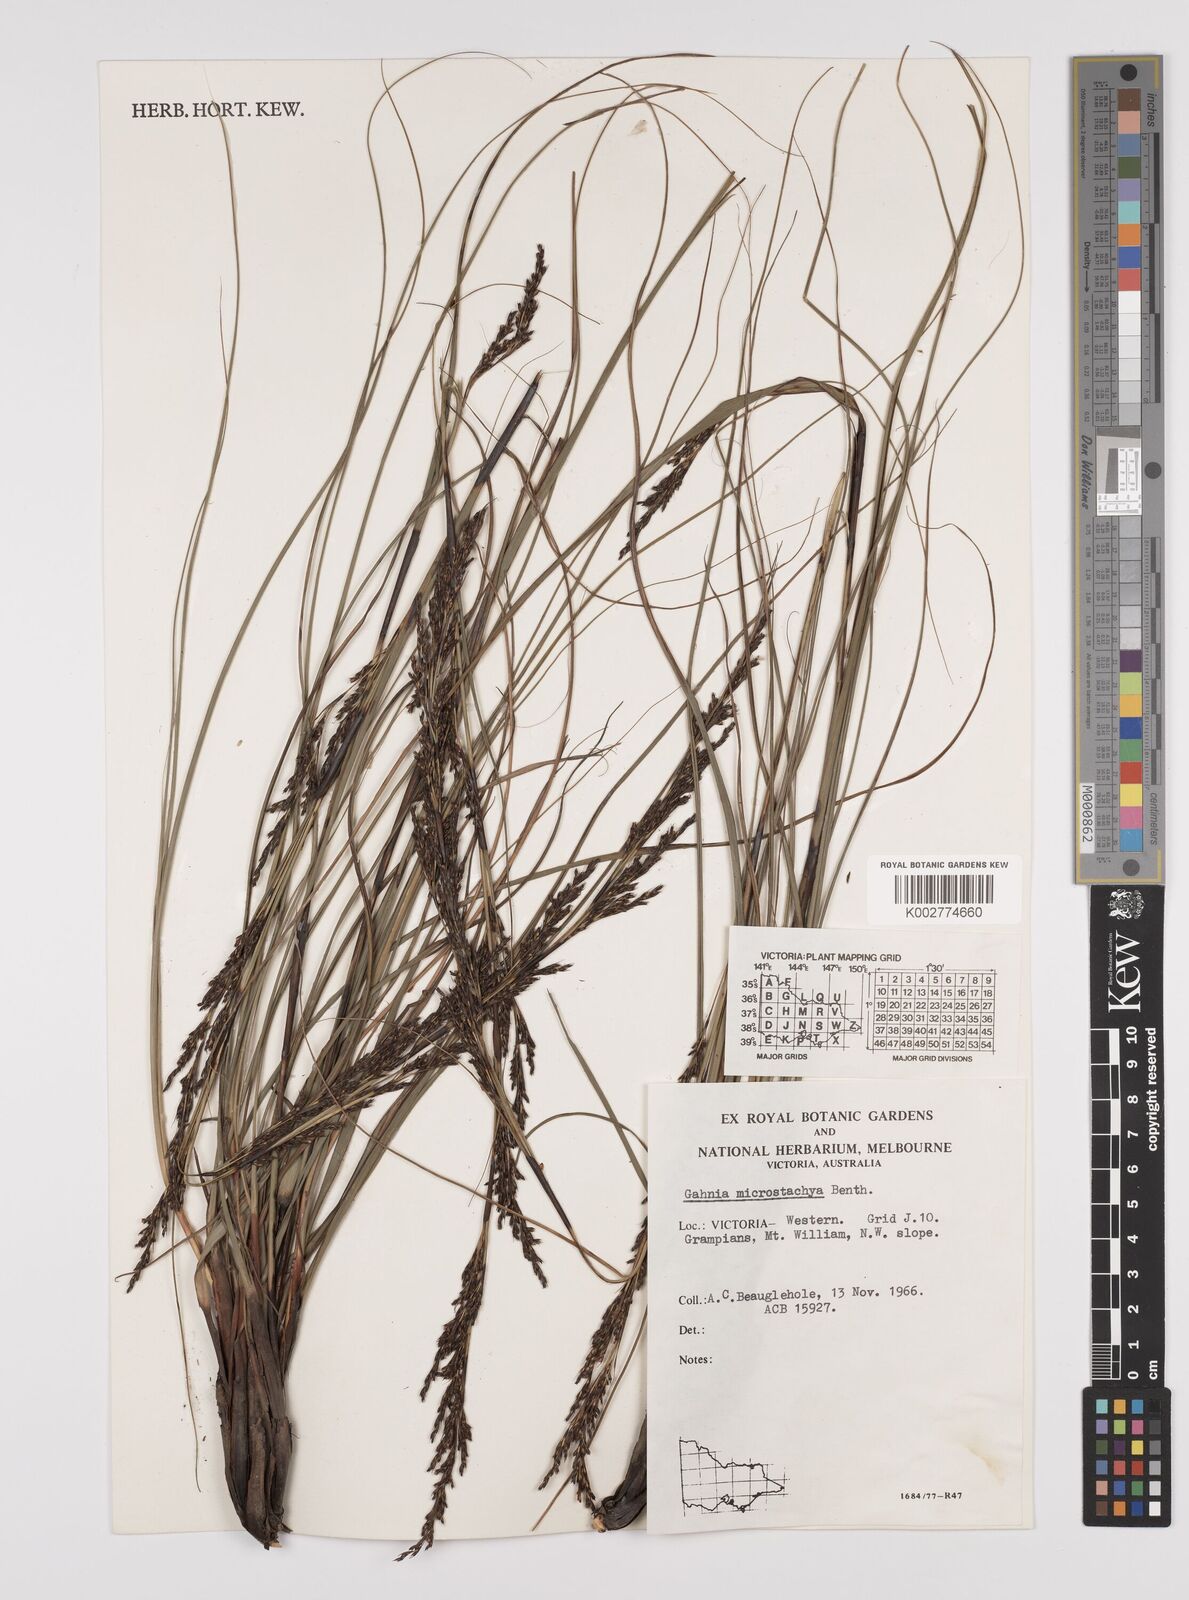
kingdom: Plantae
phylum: Tracheophyta
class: Liliopsida
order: Poales
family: Cyperaceae
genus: Gahnia
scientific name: Gahnia microstachya
